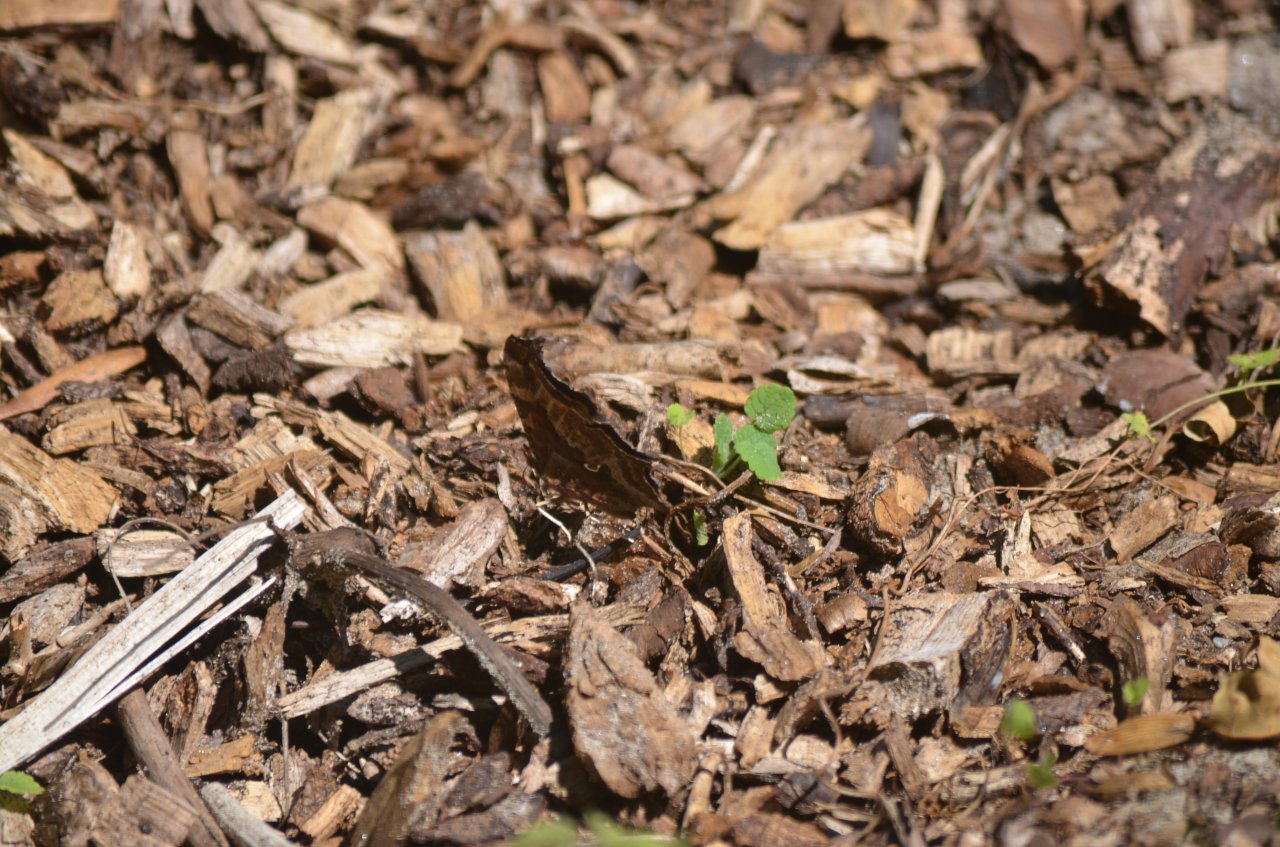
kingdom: Animalia
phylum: Arthropoda
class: Insecta
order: Lepidoptera
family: Nymphalidae
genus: Polygonia
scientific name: Polygonia interrogationis
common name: Question Mark
